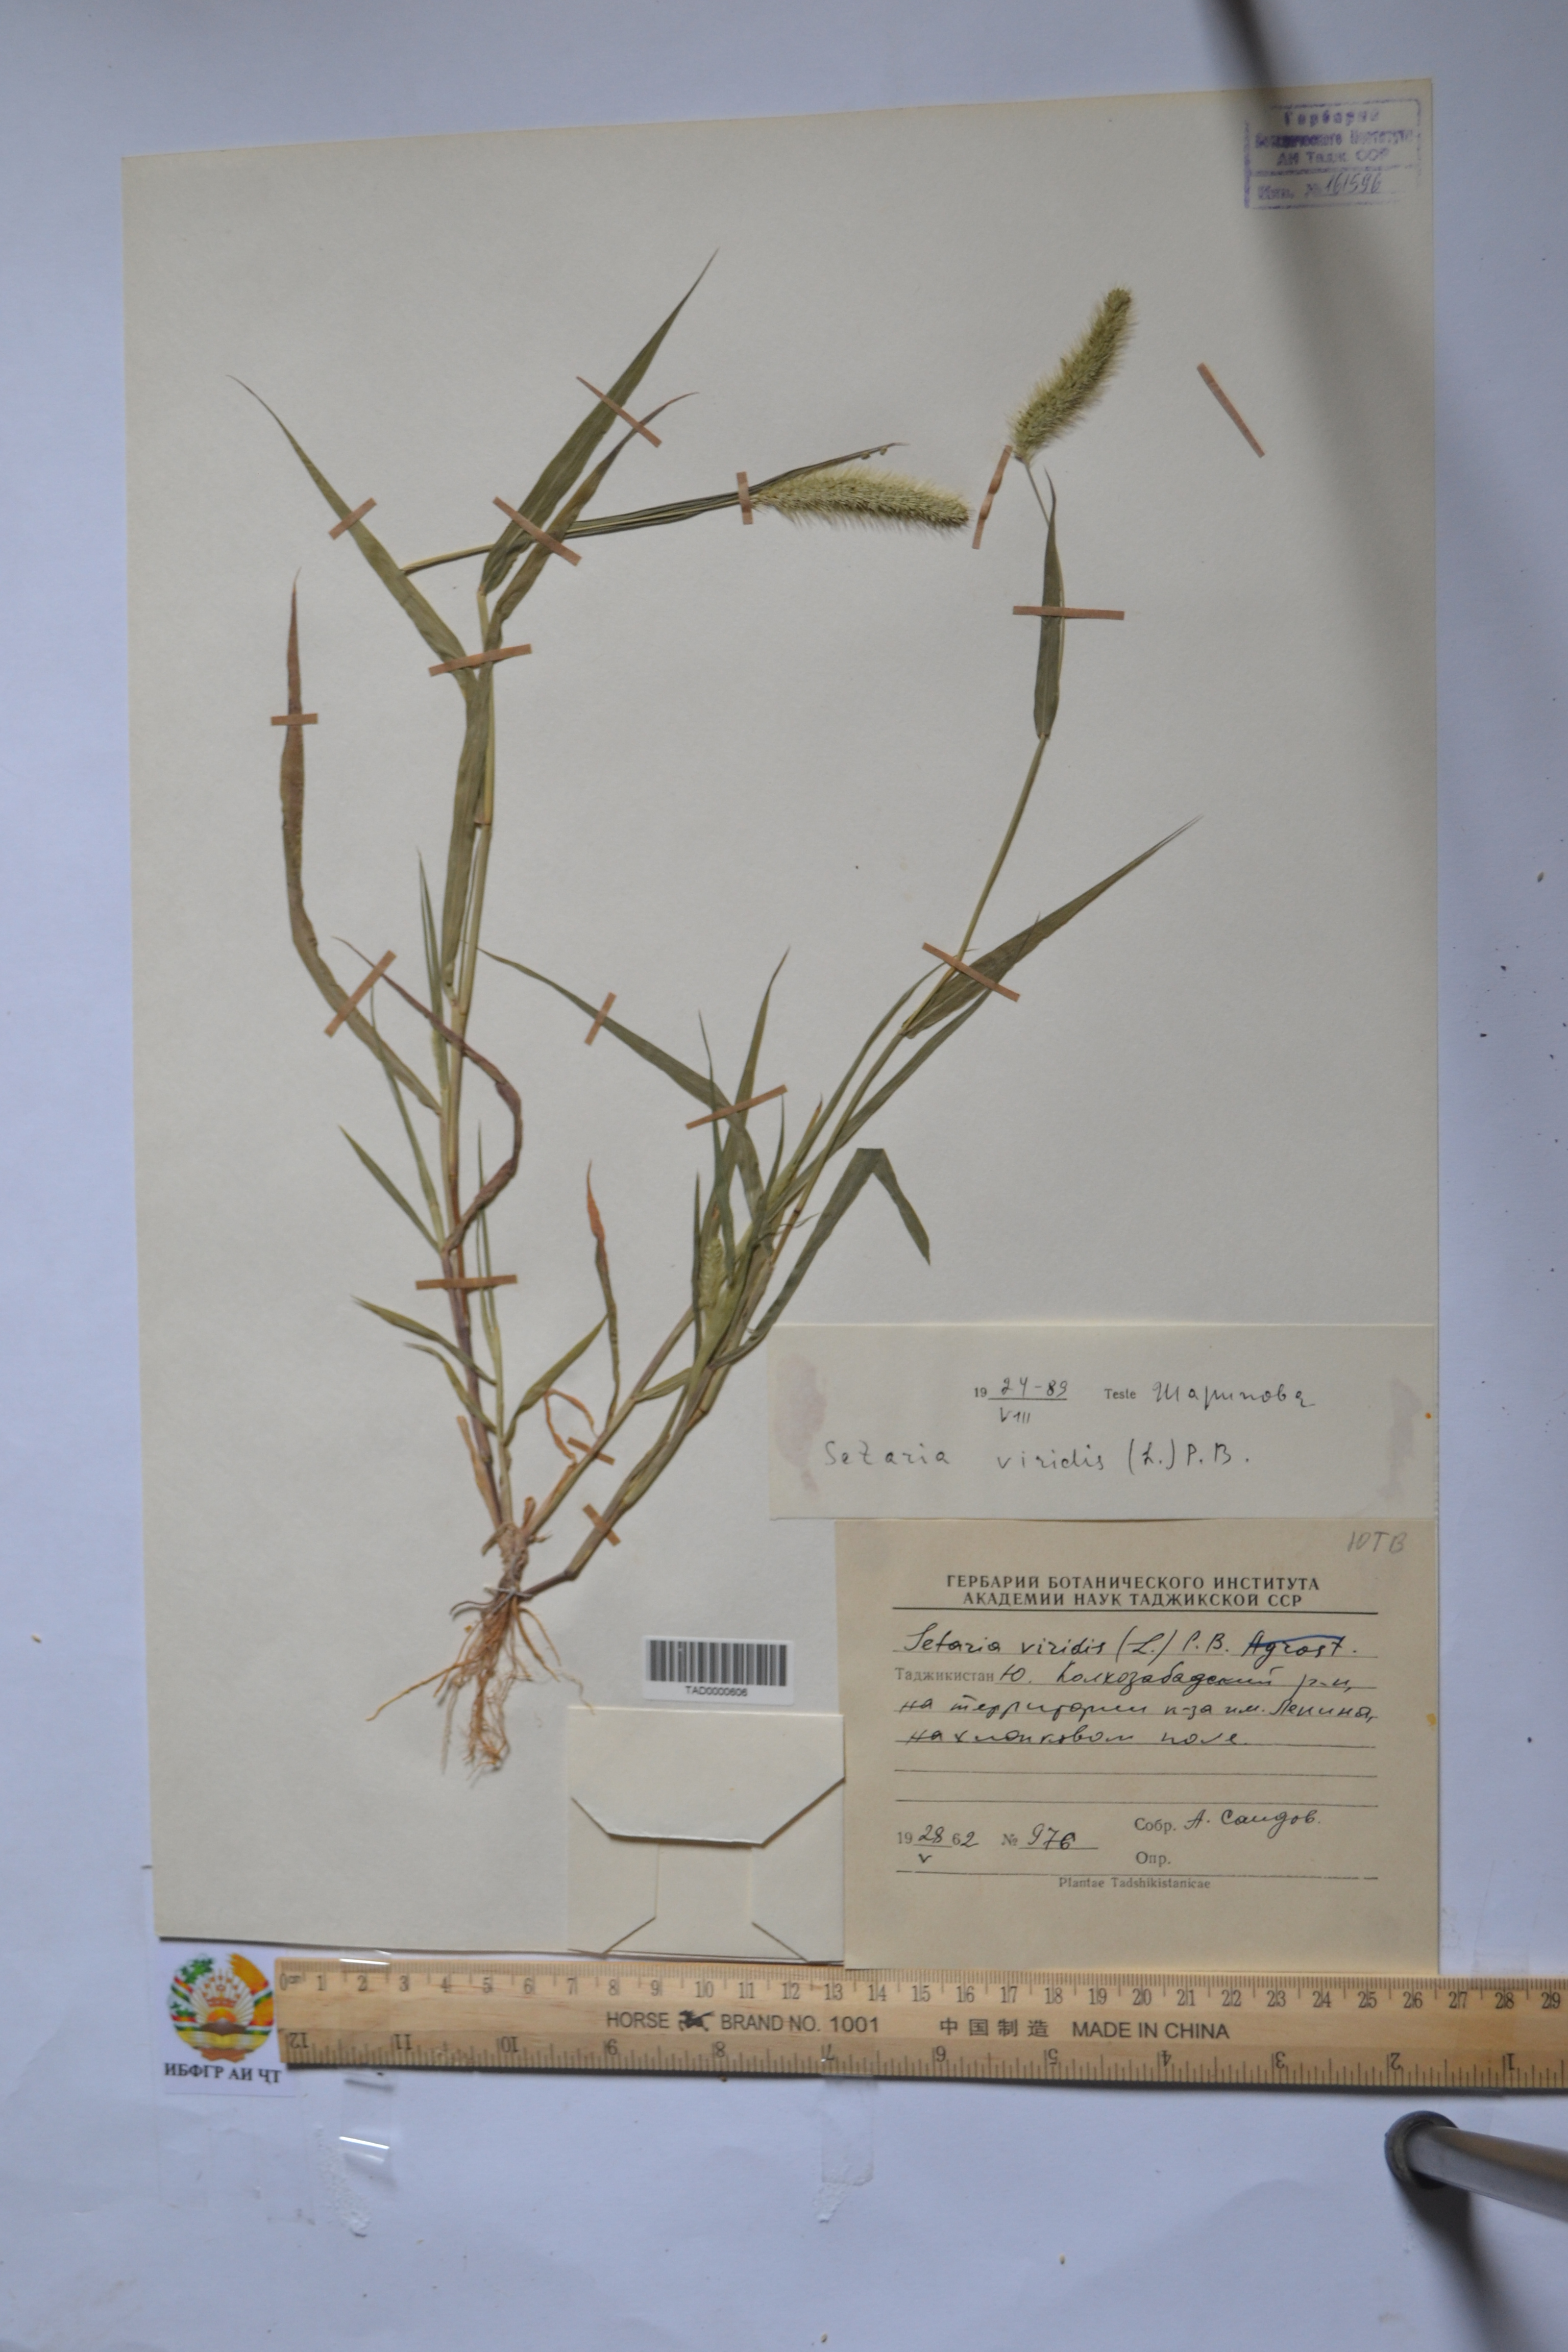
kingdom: Plantae
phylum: Tracheophyta
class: Liliopsida
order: Poales
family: Poaceae
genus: Setaria
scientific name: Setaria viridis
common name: Green bristlegrass
